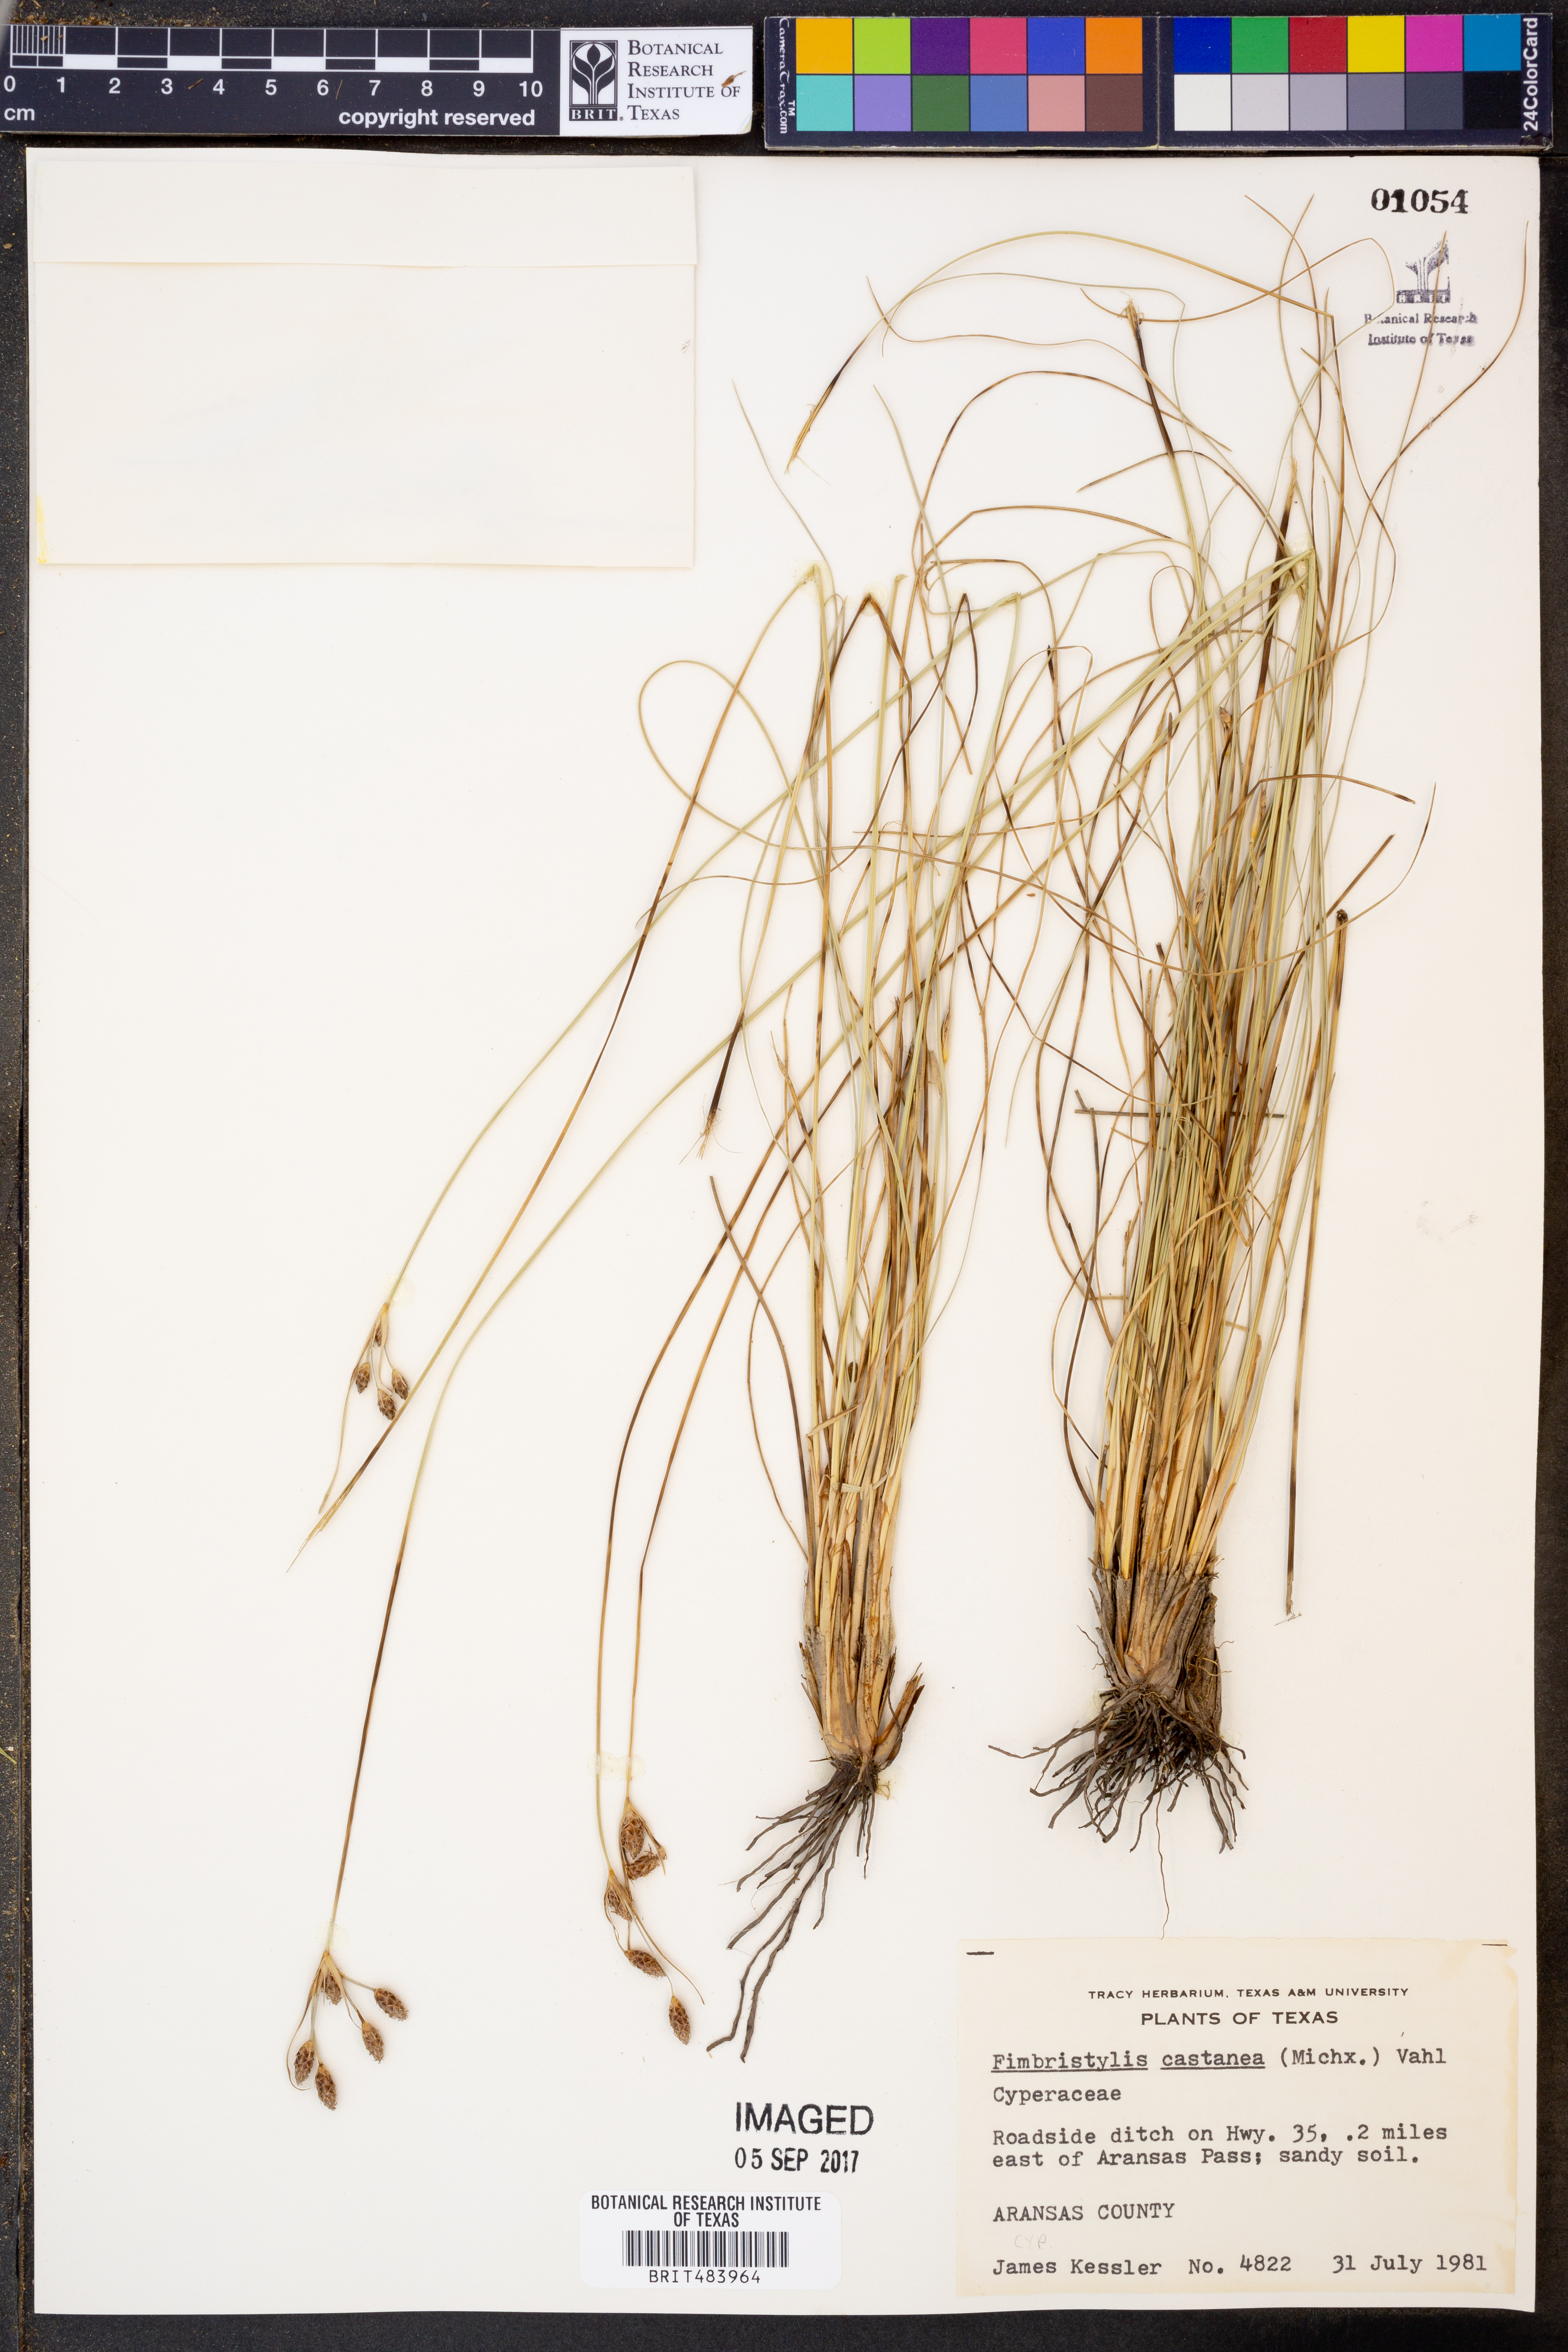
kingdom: Plantae
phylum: Tracheophyta
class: Liliopsida
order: Poales
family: Cyperaceae
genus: Fimbristylis
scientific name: Fimbristylis spadicea
